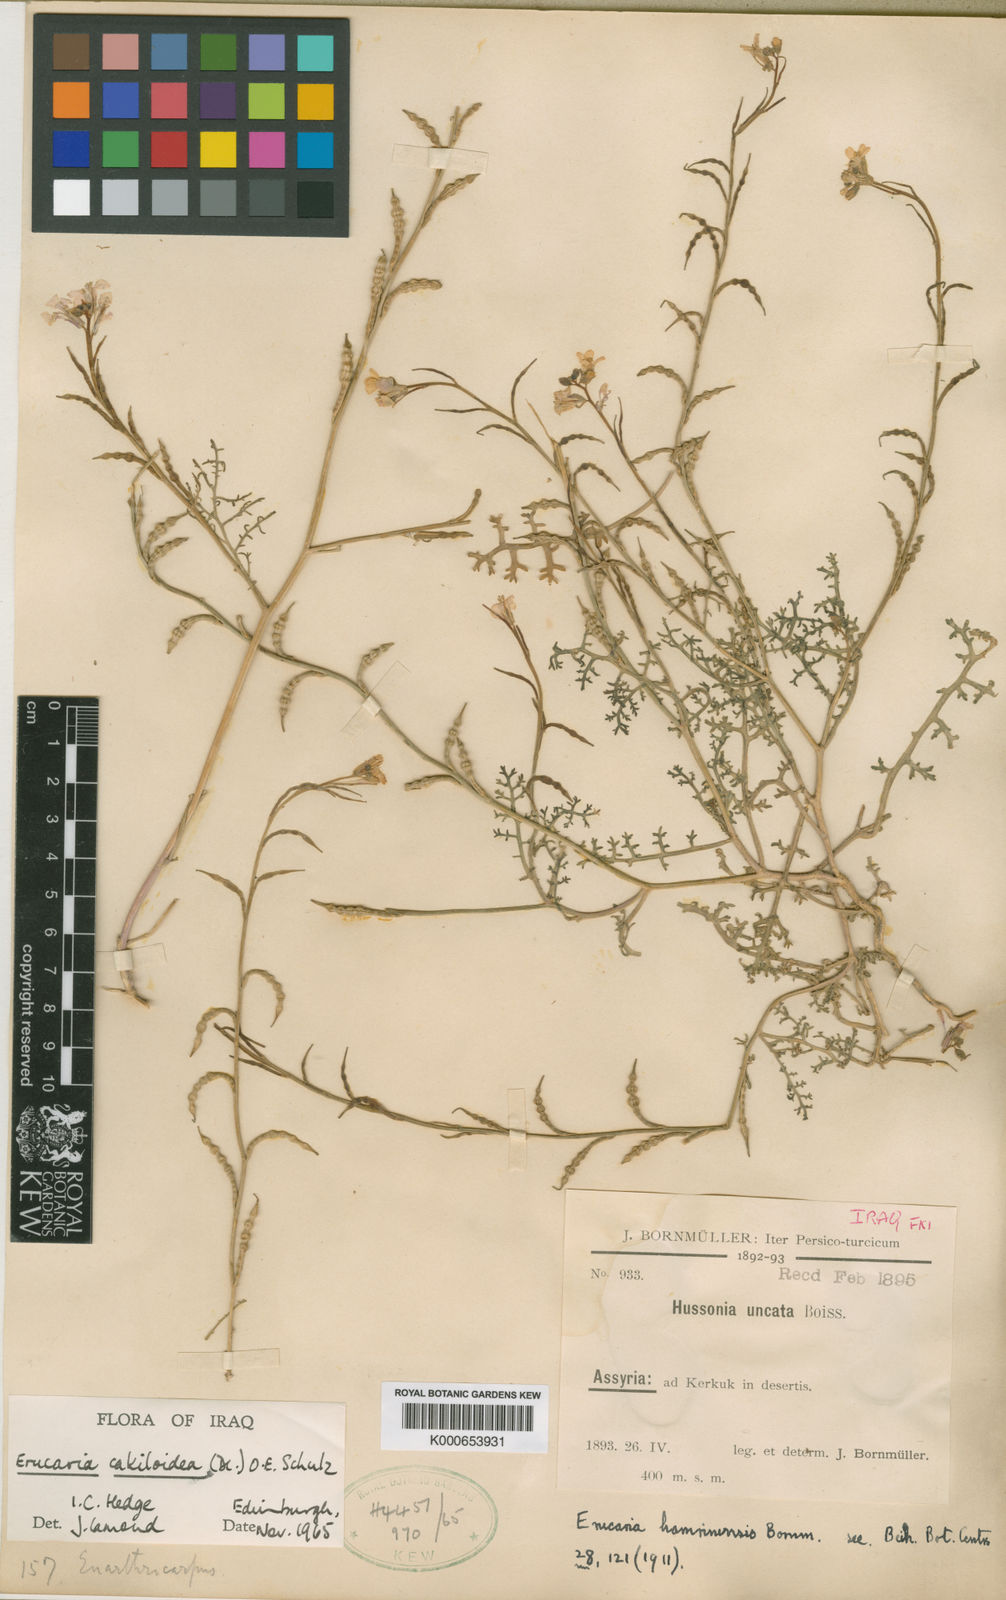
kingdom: Plantae
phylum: Tracheophyta
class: Magnoliopsida
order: Brassicales
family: Brassicaceae
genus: Erucaria
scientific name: Erucaria cakiloidea
